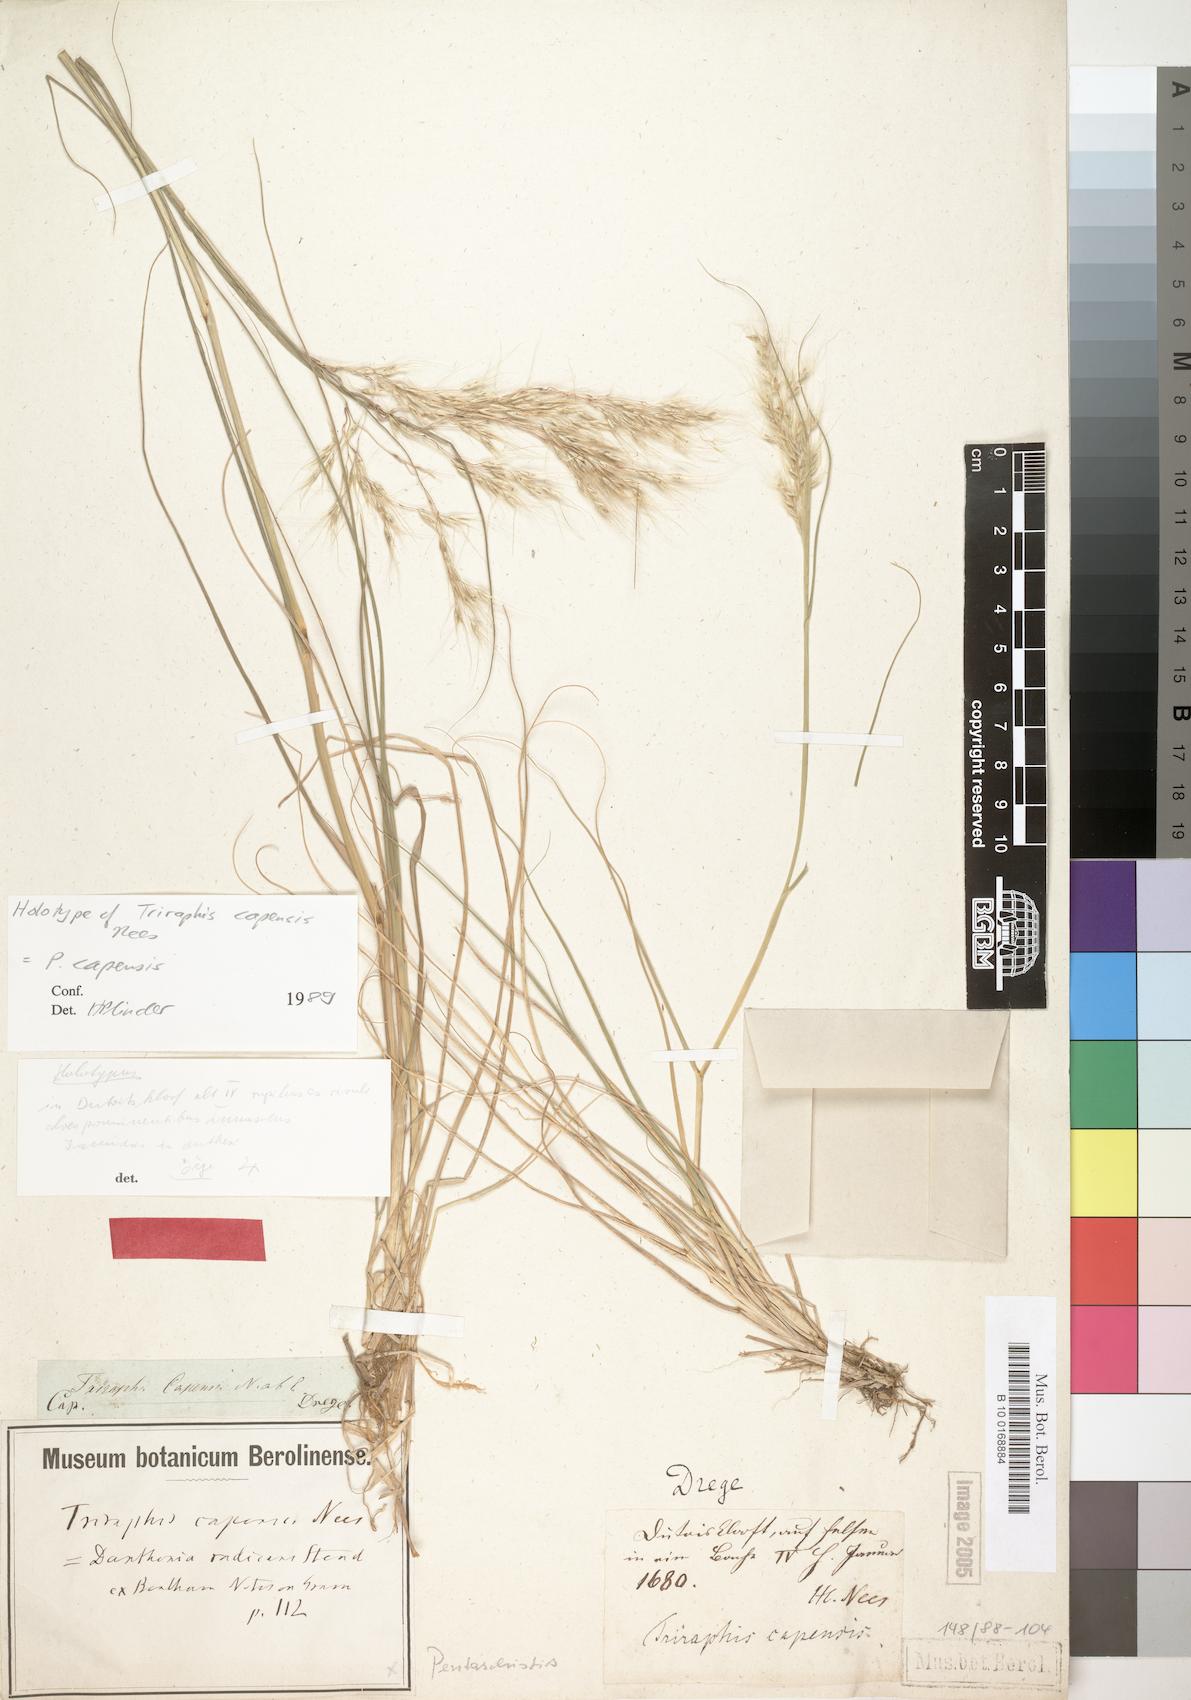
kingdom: Plantae
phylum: Tracheophyta
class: Liliopsida
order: Poales
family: Poaceae
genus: Pentameris
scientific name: Pentameris capensis
